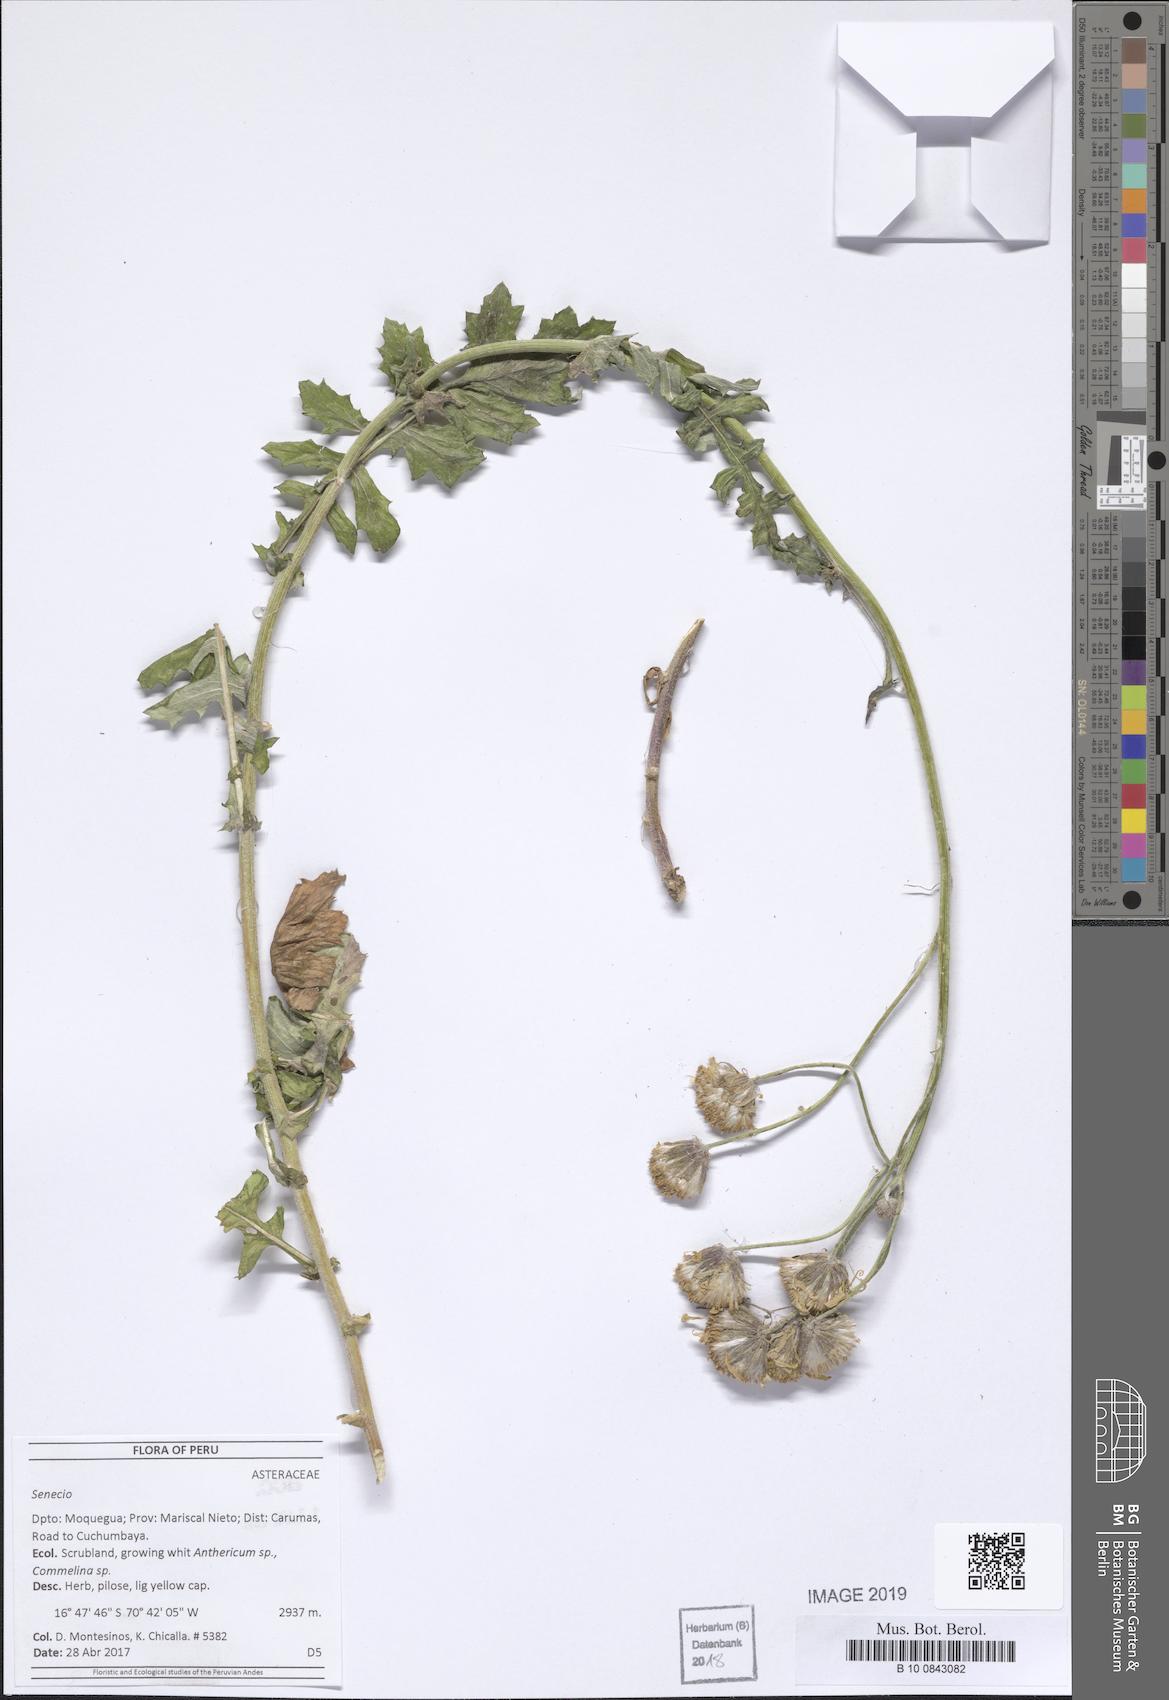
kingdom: Plantae
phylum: Tracheophyta
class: Magnoliopsida
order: Asterales
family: Asteraceae
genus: Lomanthus
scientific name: Lomanthus arnaldii
